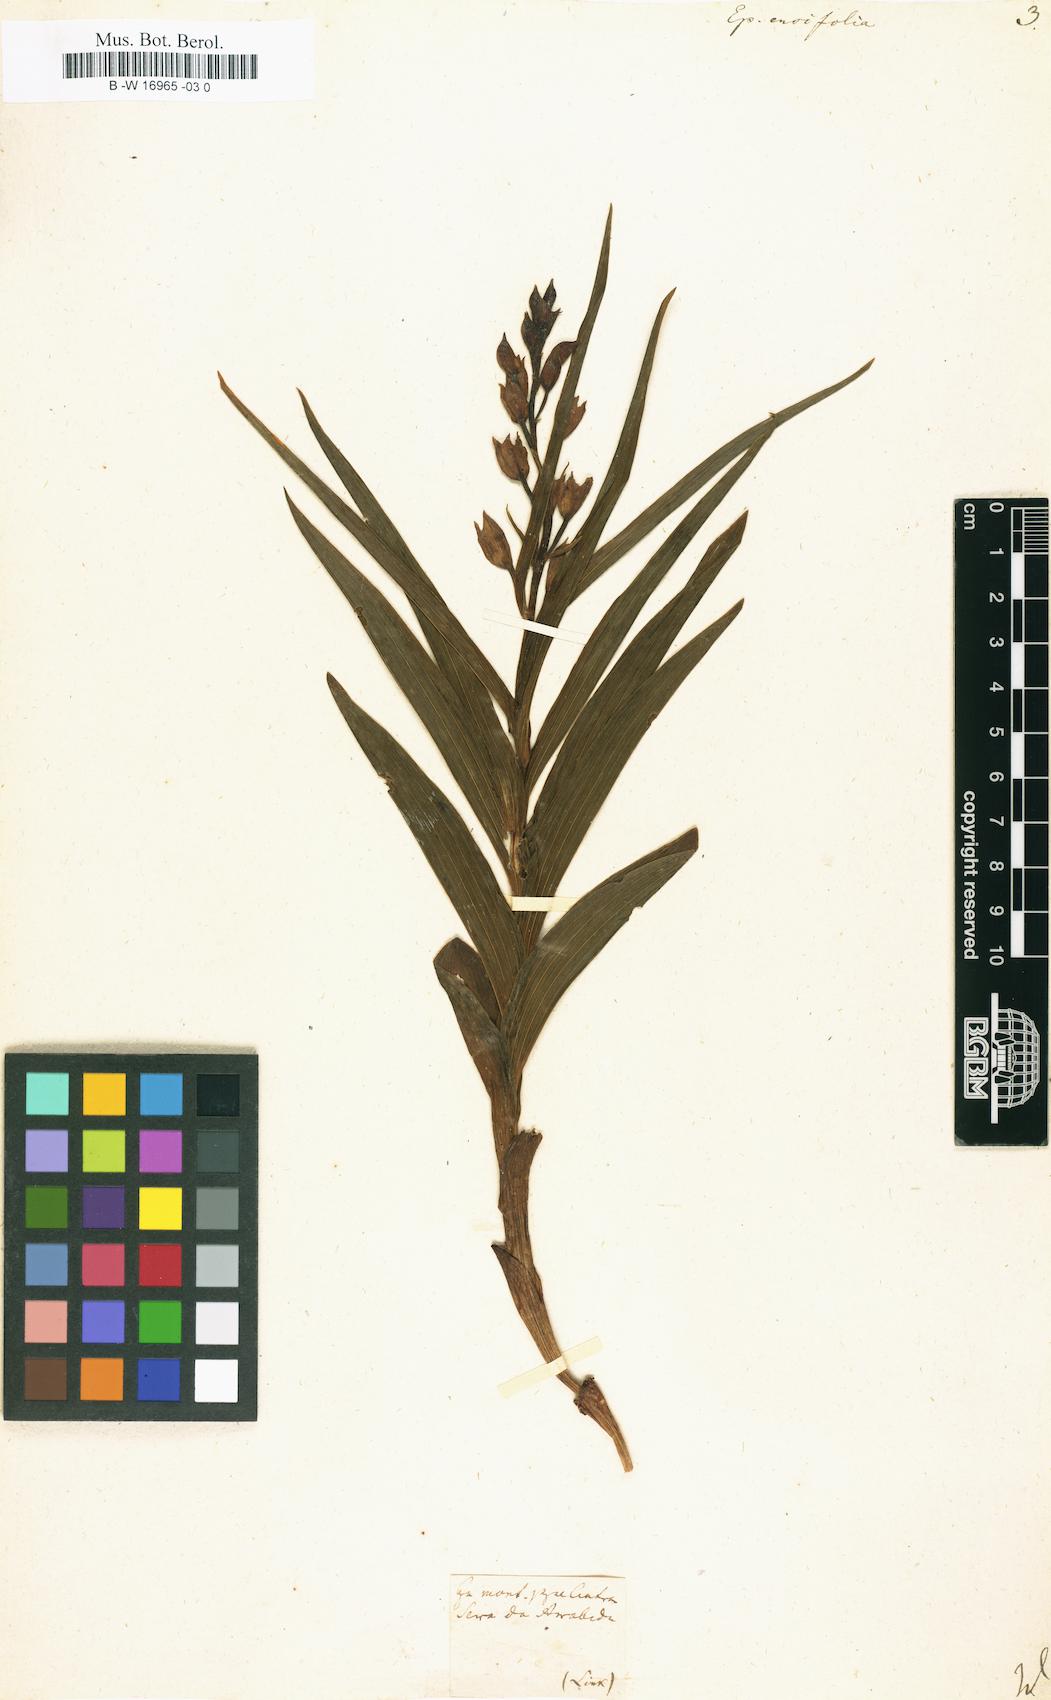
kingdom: Plantae
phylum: Tracheophyta
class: Liliopsida
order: Asparagales
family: Orchidaceae
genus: Cephalanthera
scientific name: Cephalanthera longifolia
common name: Narrow-leaved helleborine
